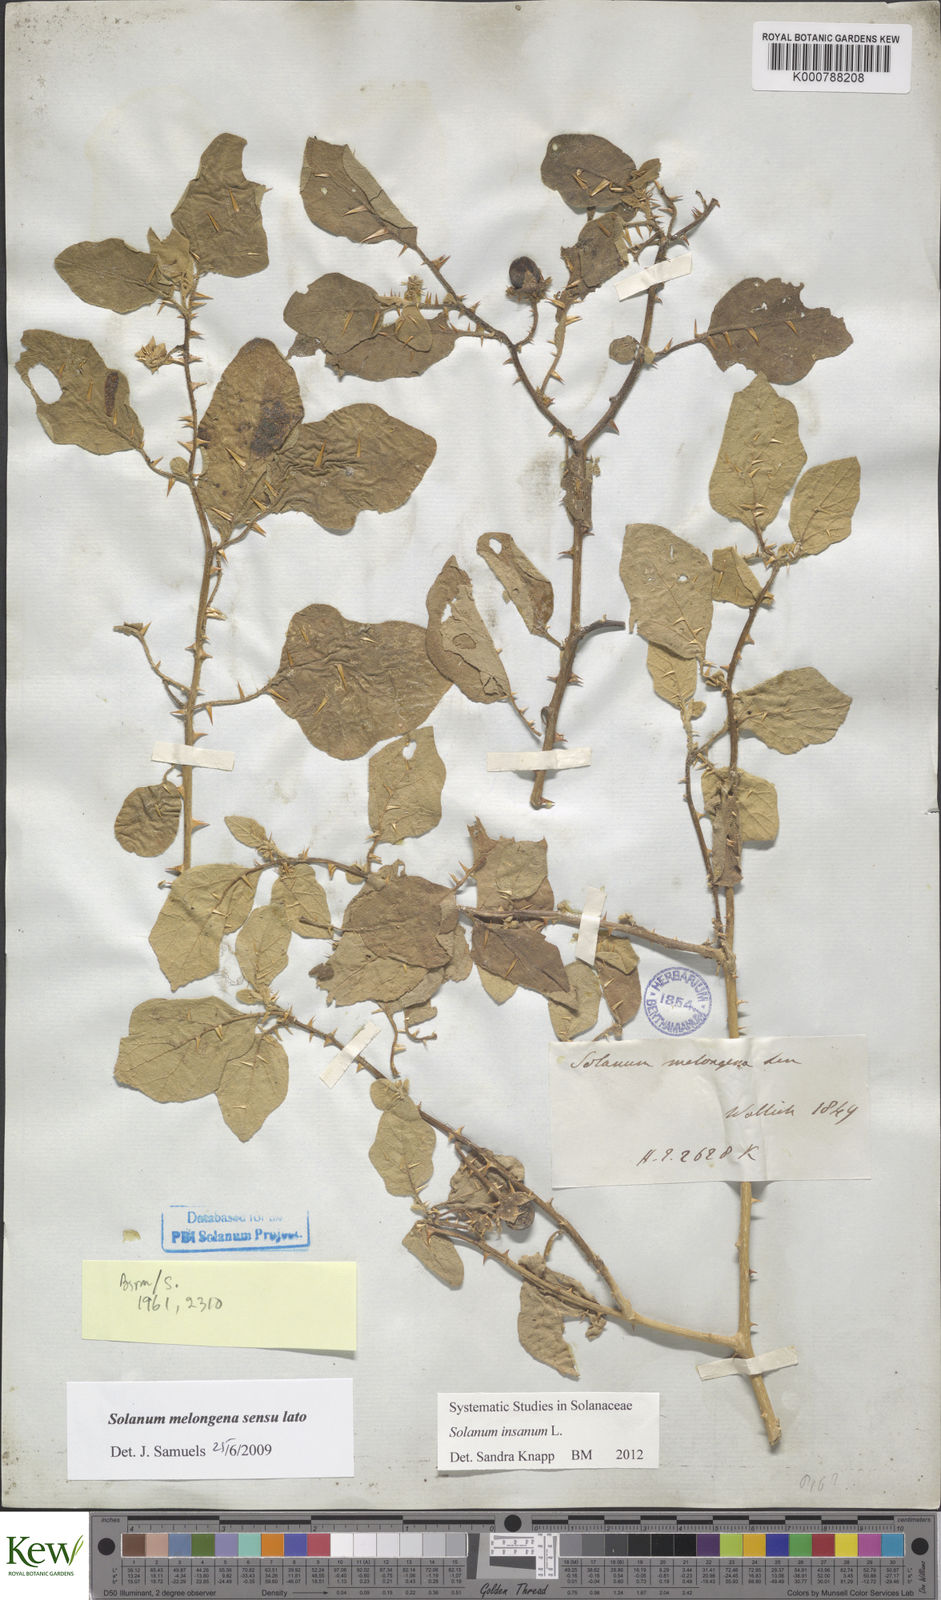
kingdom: Plantae
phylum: Tracheophyta
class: Magnoliopsida
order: Solanales
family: Solanaceae
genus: Solanum
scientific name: Solanum insanum
